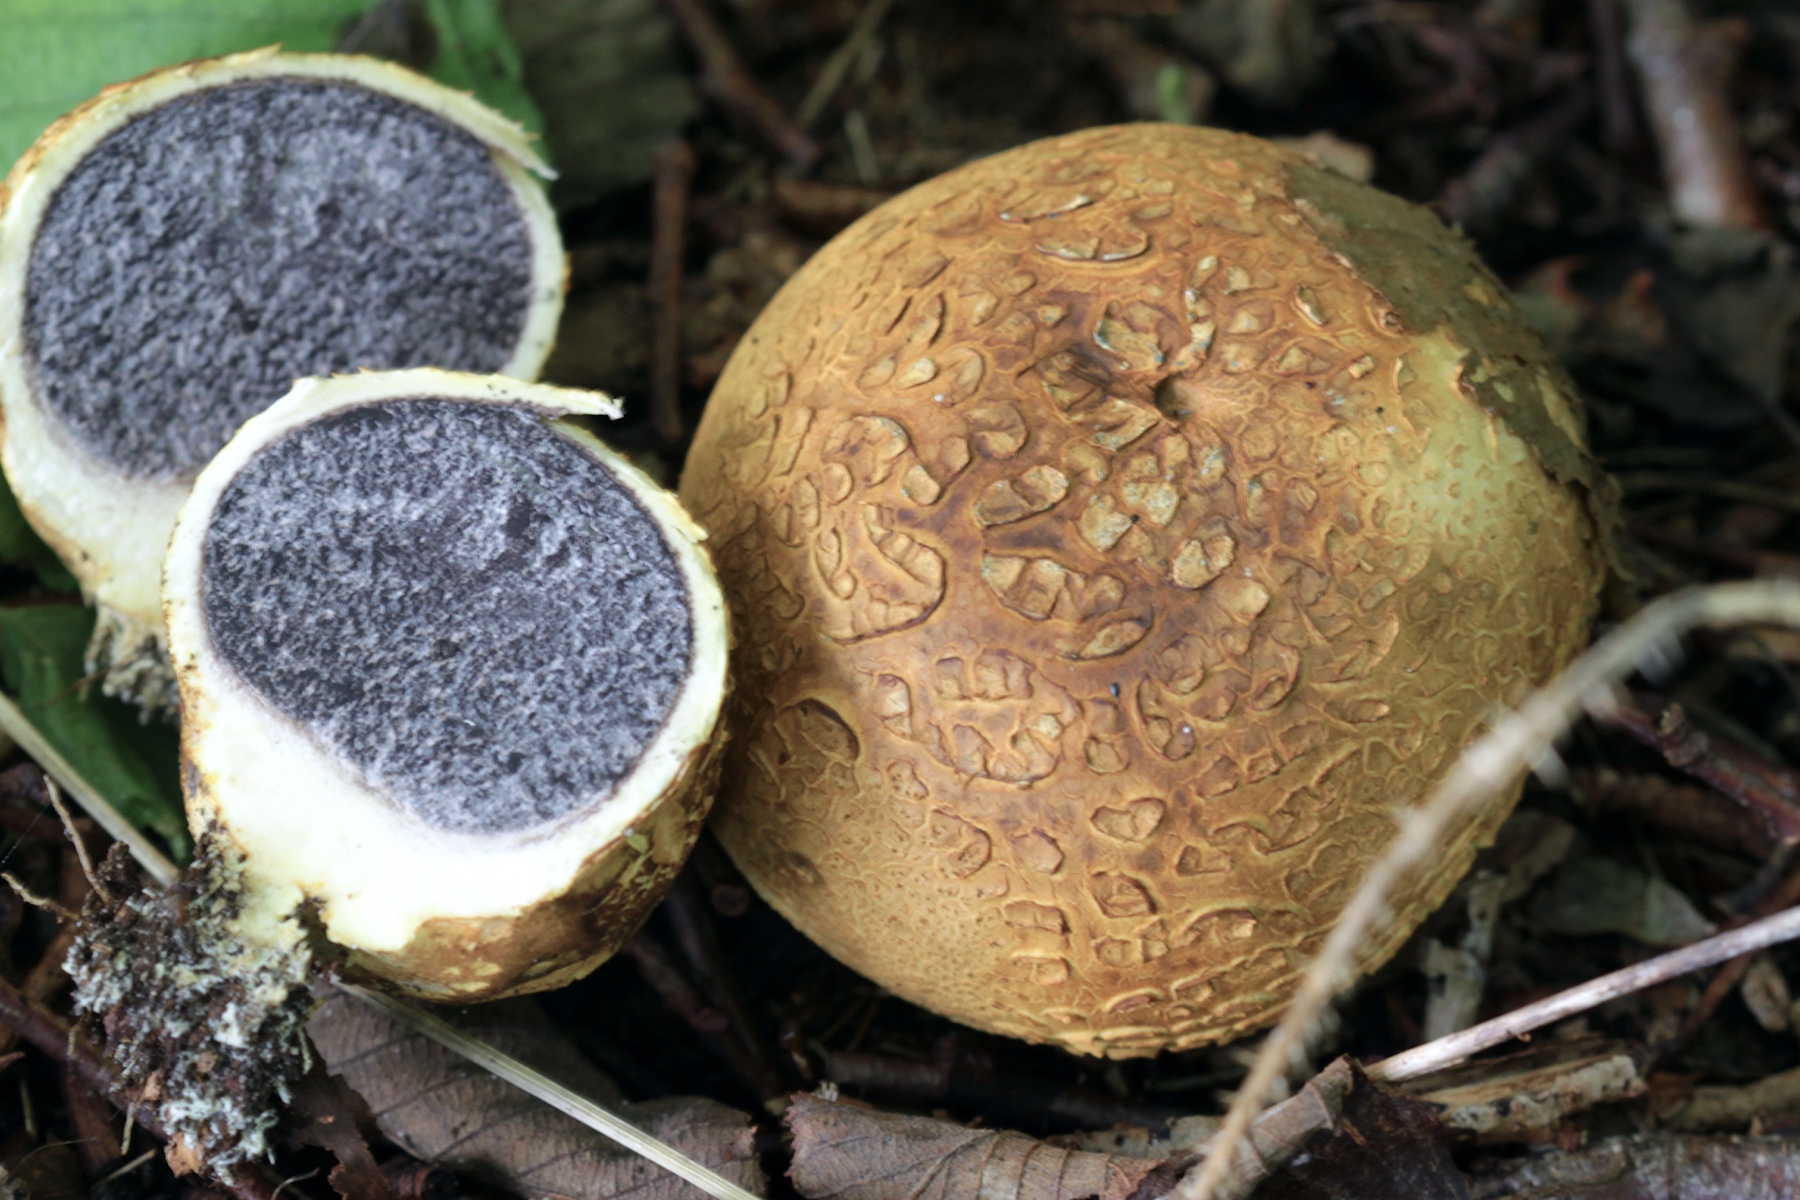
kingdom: Fungi
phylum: Basidiomycota
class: Agaricomycetes
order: Boletales
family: Sclerodermataceae
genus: Scleroderma
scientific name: Scleroderma citrinum
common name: almindelig bruskbold
